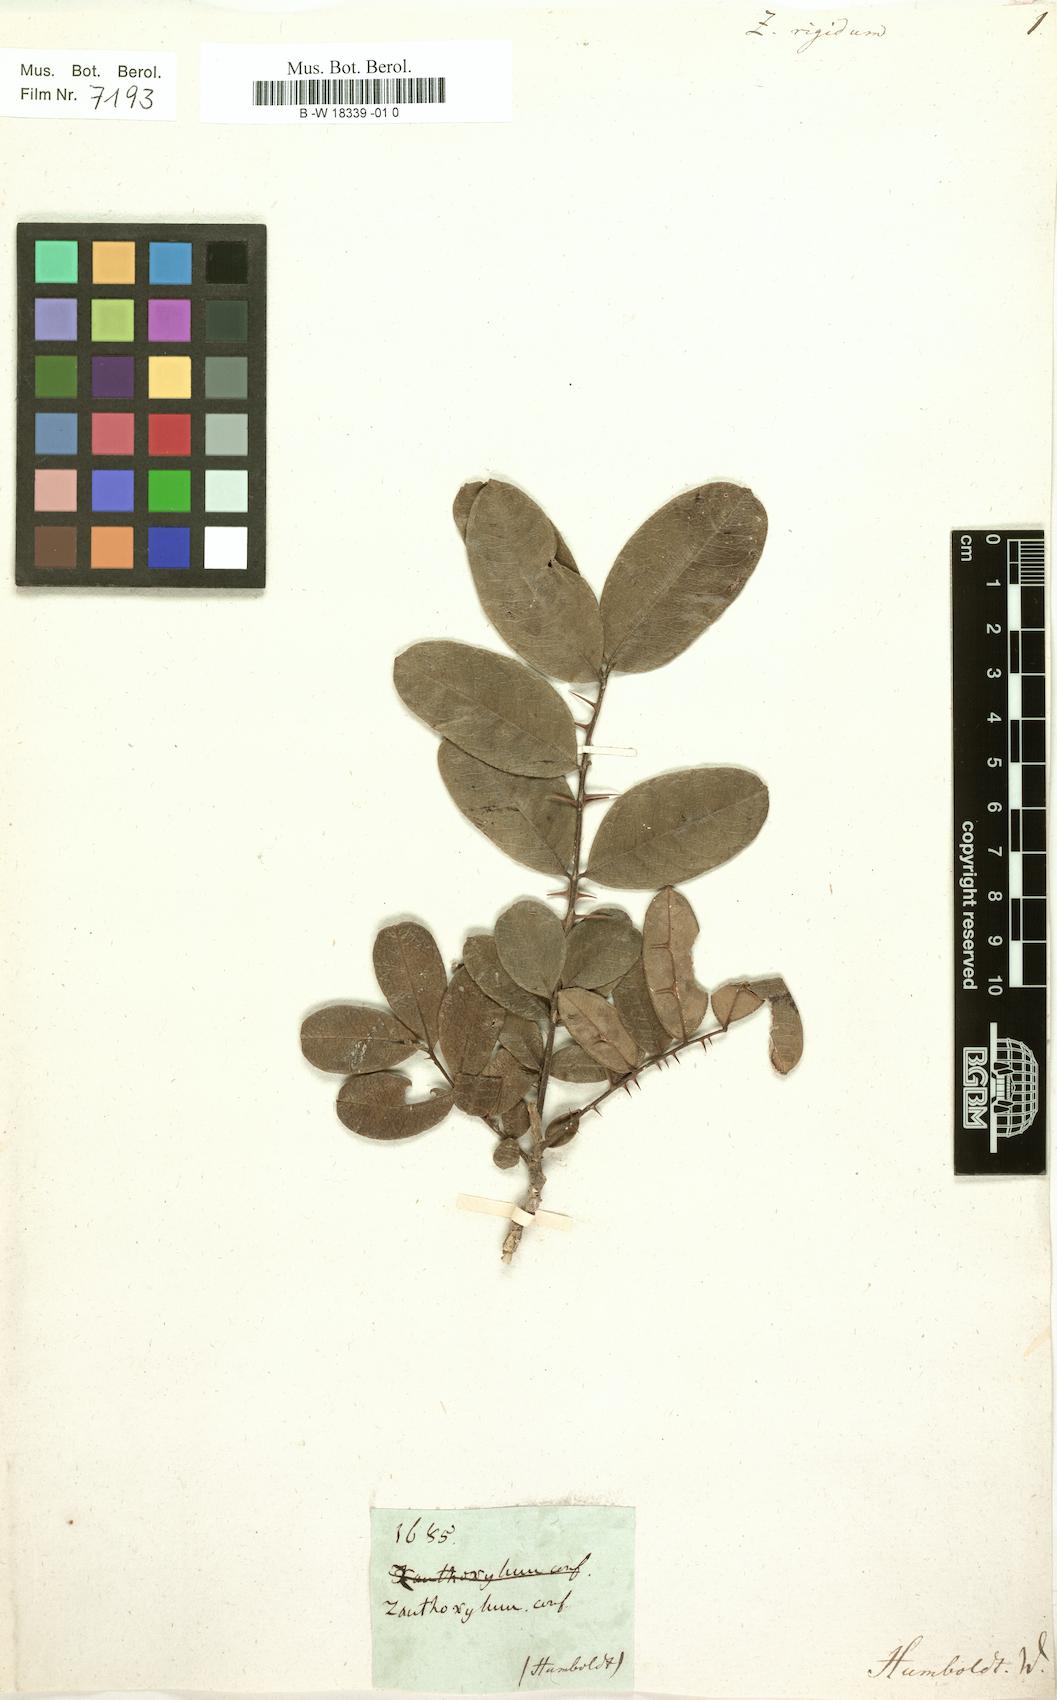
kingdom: Plantae
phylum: Tracheophyta
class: Magnoliopsida
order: Sapindales
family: Rutaceae
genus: Zanthoxylum
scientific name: Zanthoxylum rigidum
